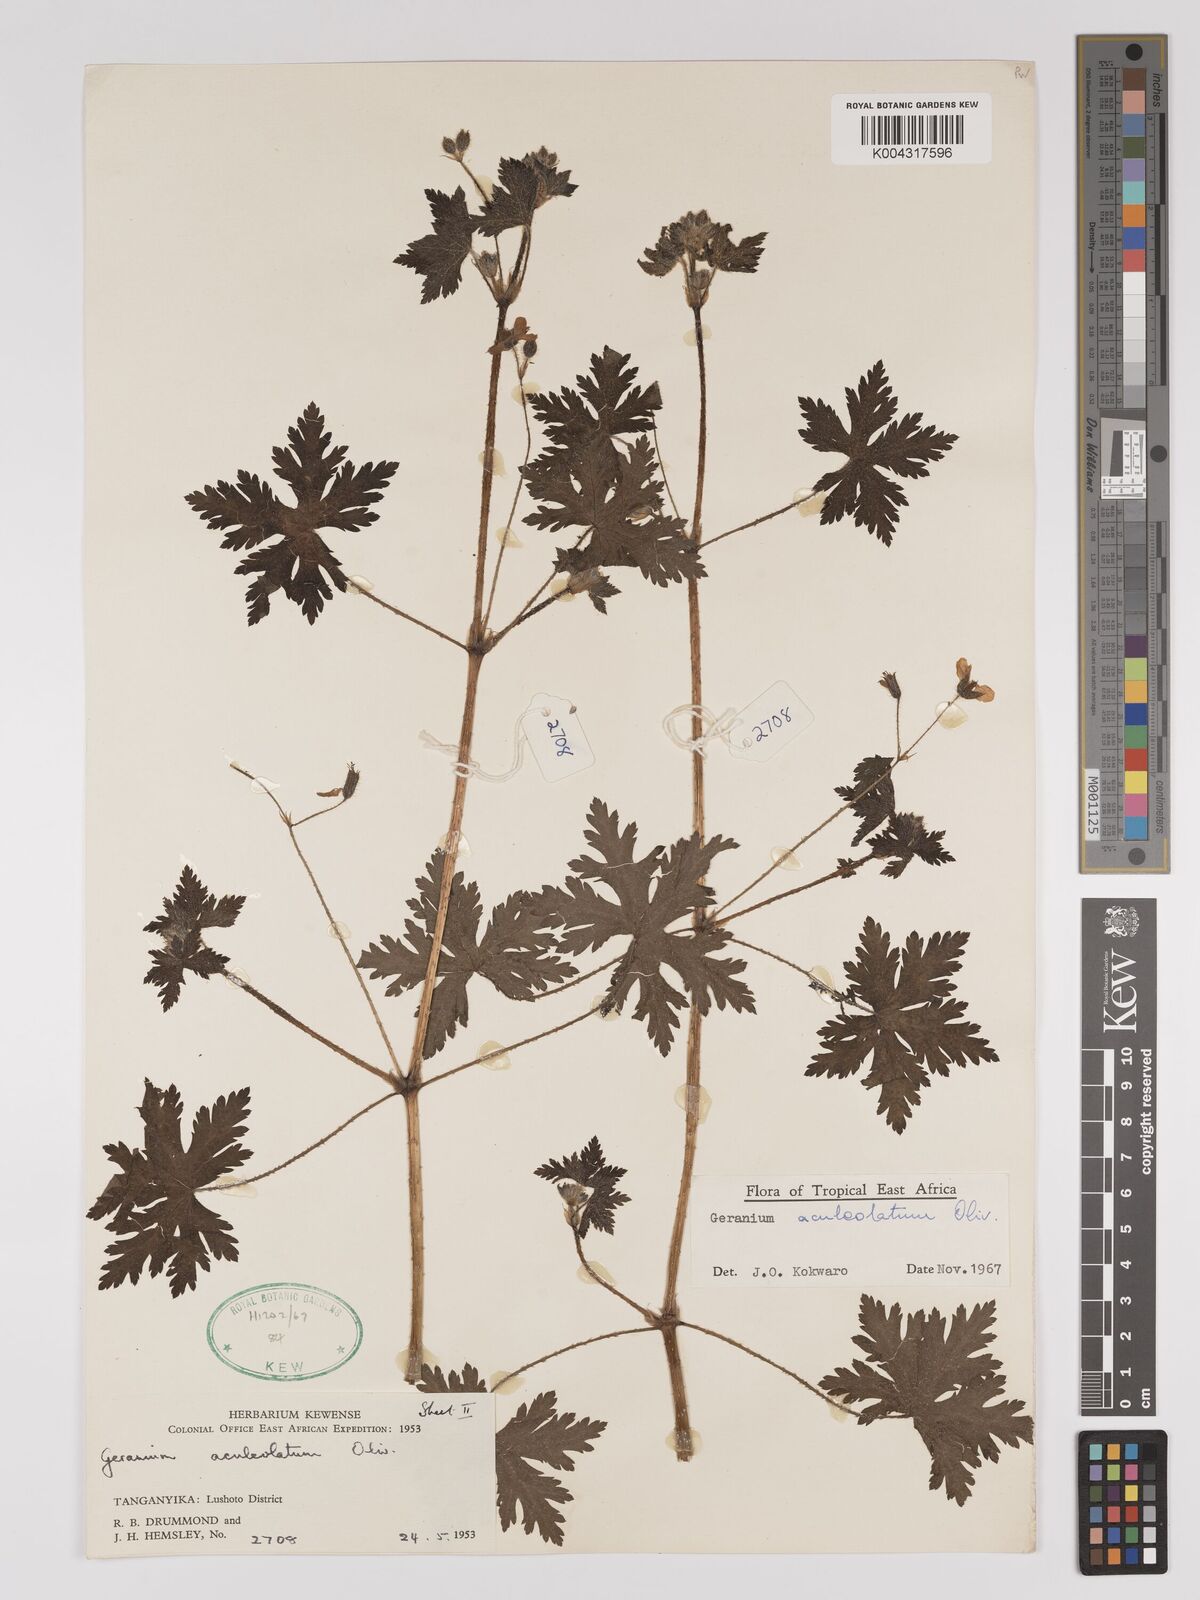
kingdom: Plantae
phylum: Tracheophyta
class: Magnoliopsida
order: Geraniales
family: Geraniaceae
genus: Geranium
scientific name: Geranium aculeolatum
